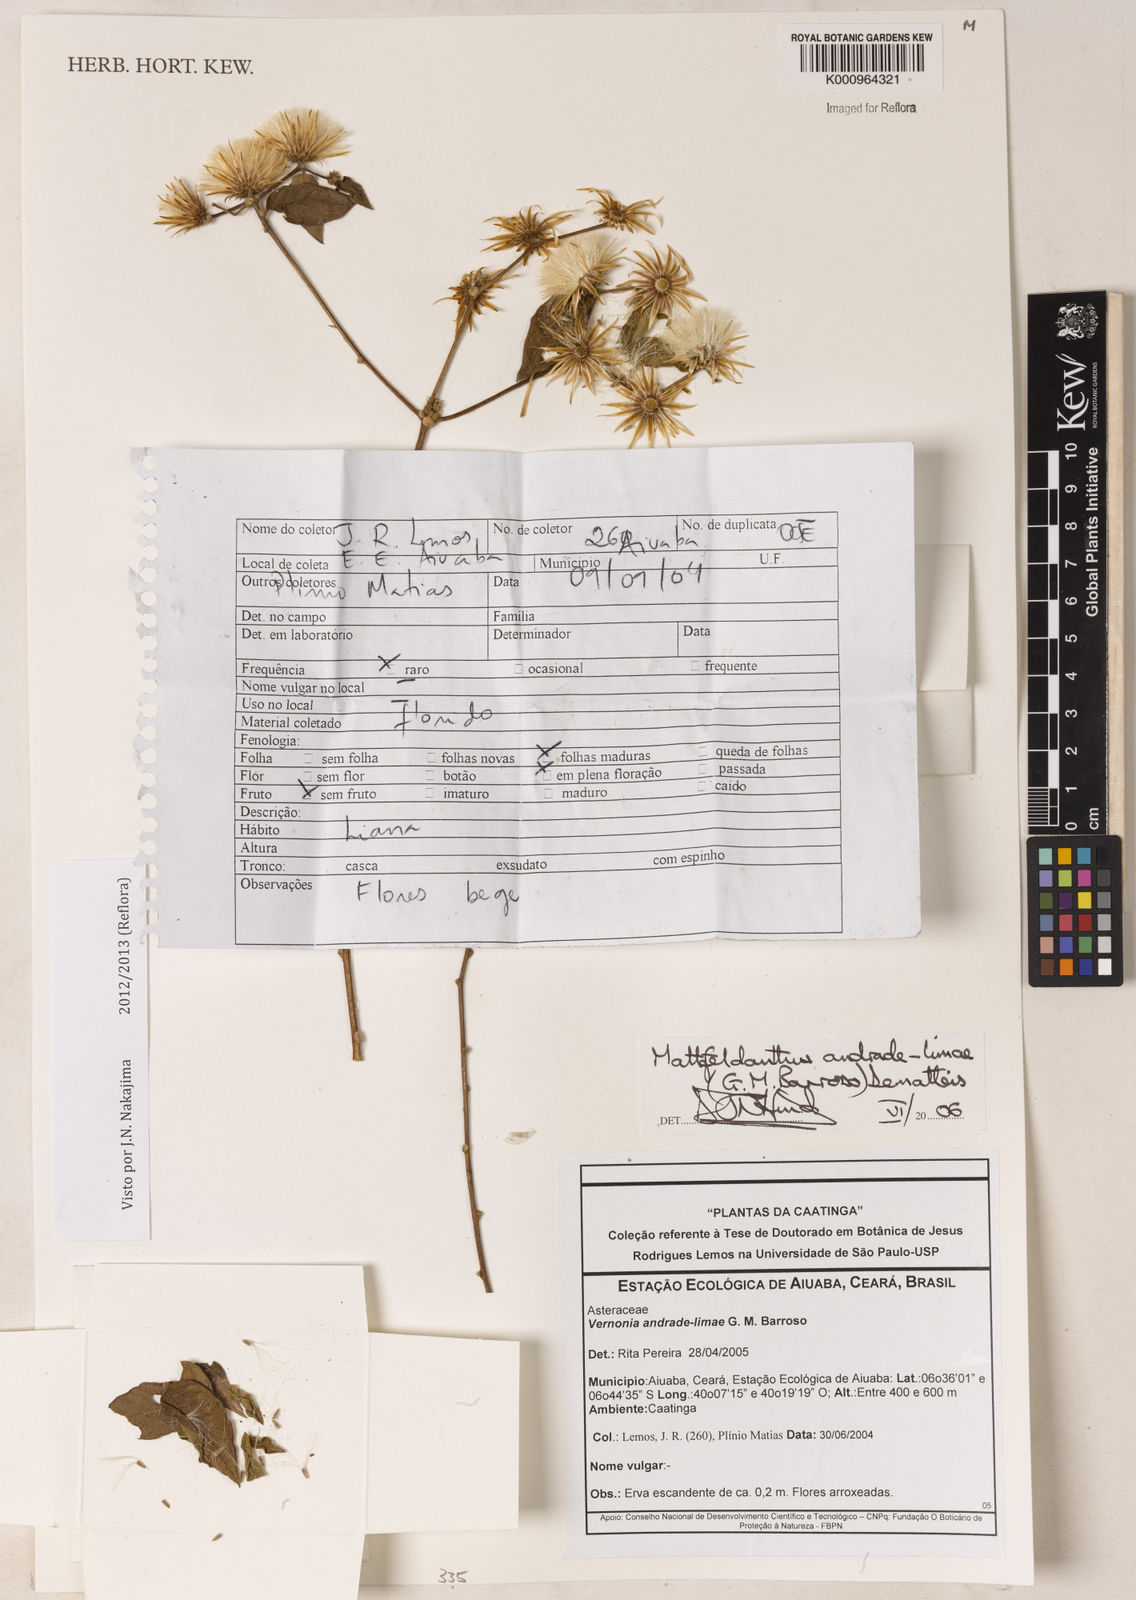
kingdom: Plantae
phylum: Tracheophyta
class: Magnoliopsida
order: Asterales
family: Asteraceae
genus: Mattfeldanthus
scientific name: Mattfeldanthus andrade-limae
